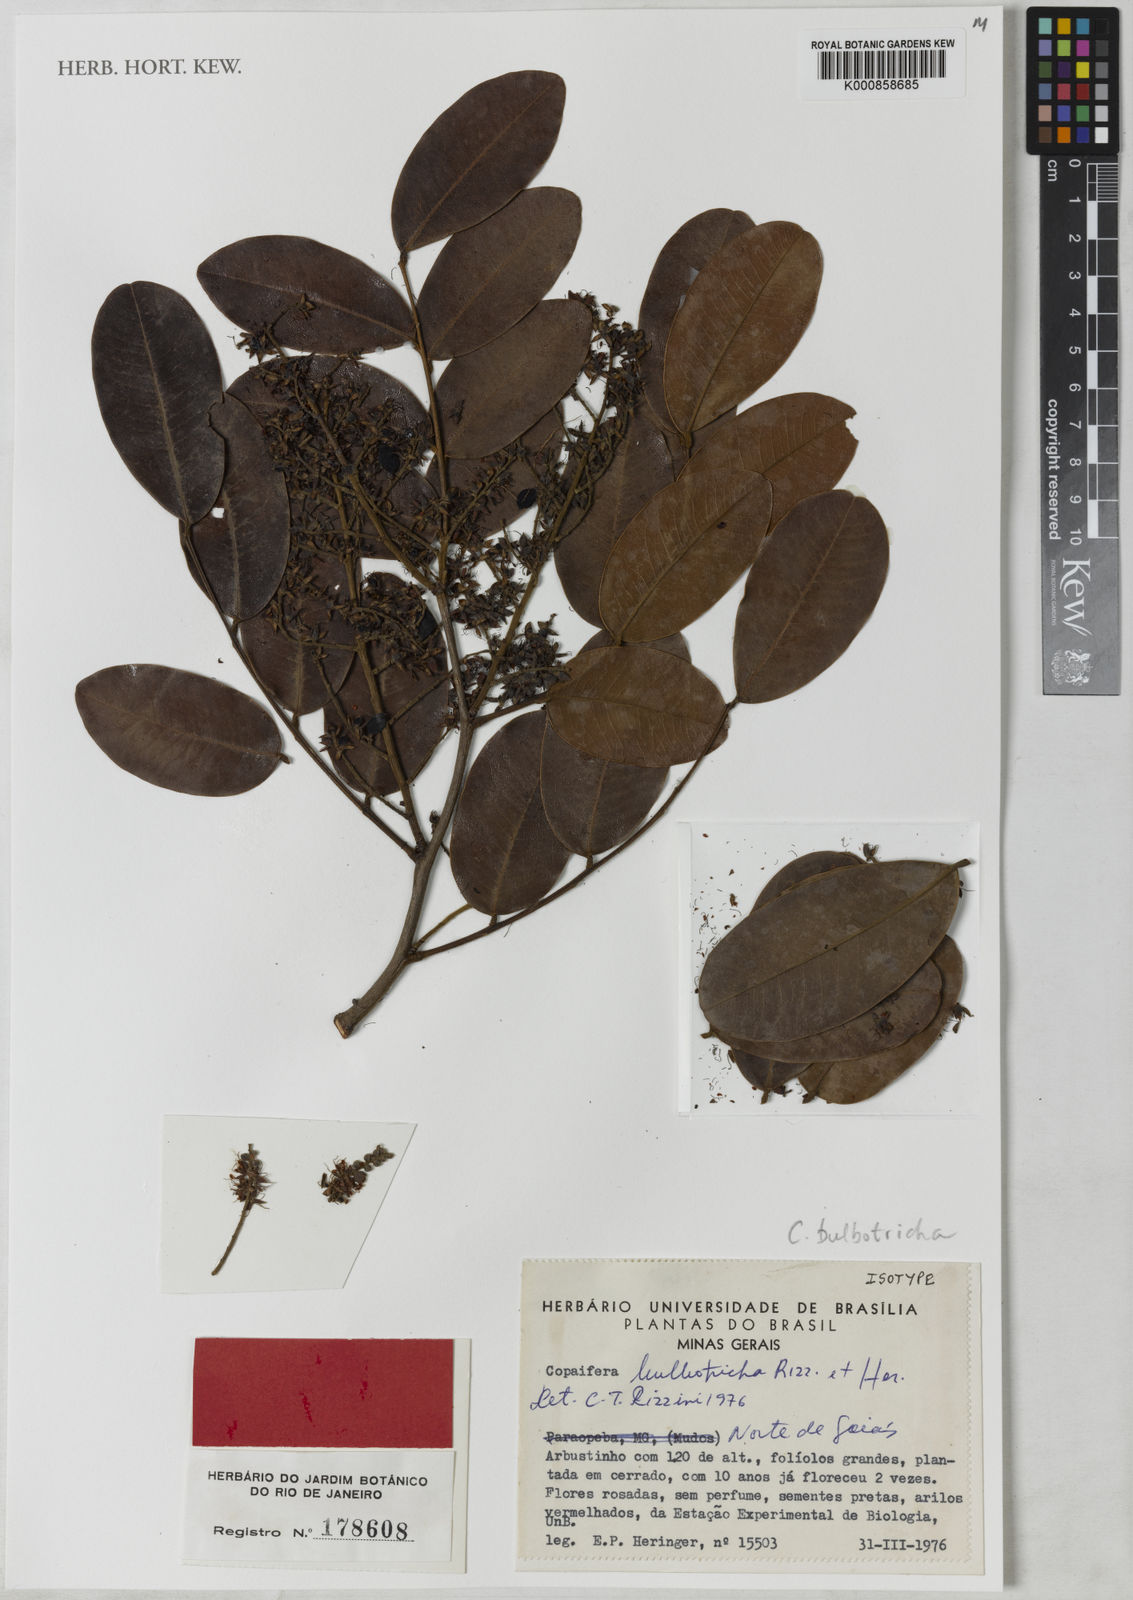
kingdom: Plantae
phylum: Tracheophyta
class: Magnoliopsida
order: Fabales
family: Fabaceae
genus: Copaifera
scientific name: Copaifera bulbotricha
